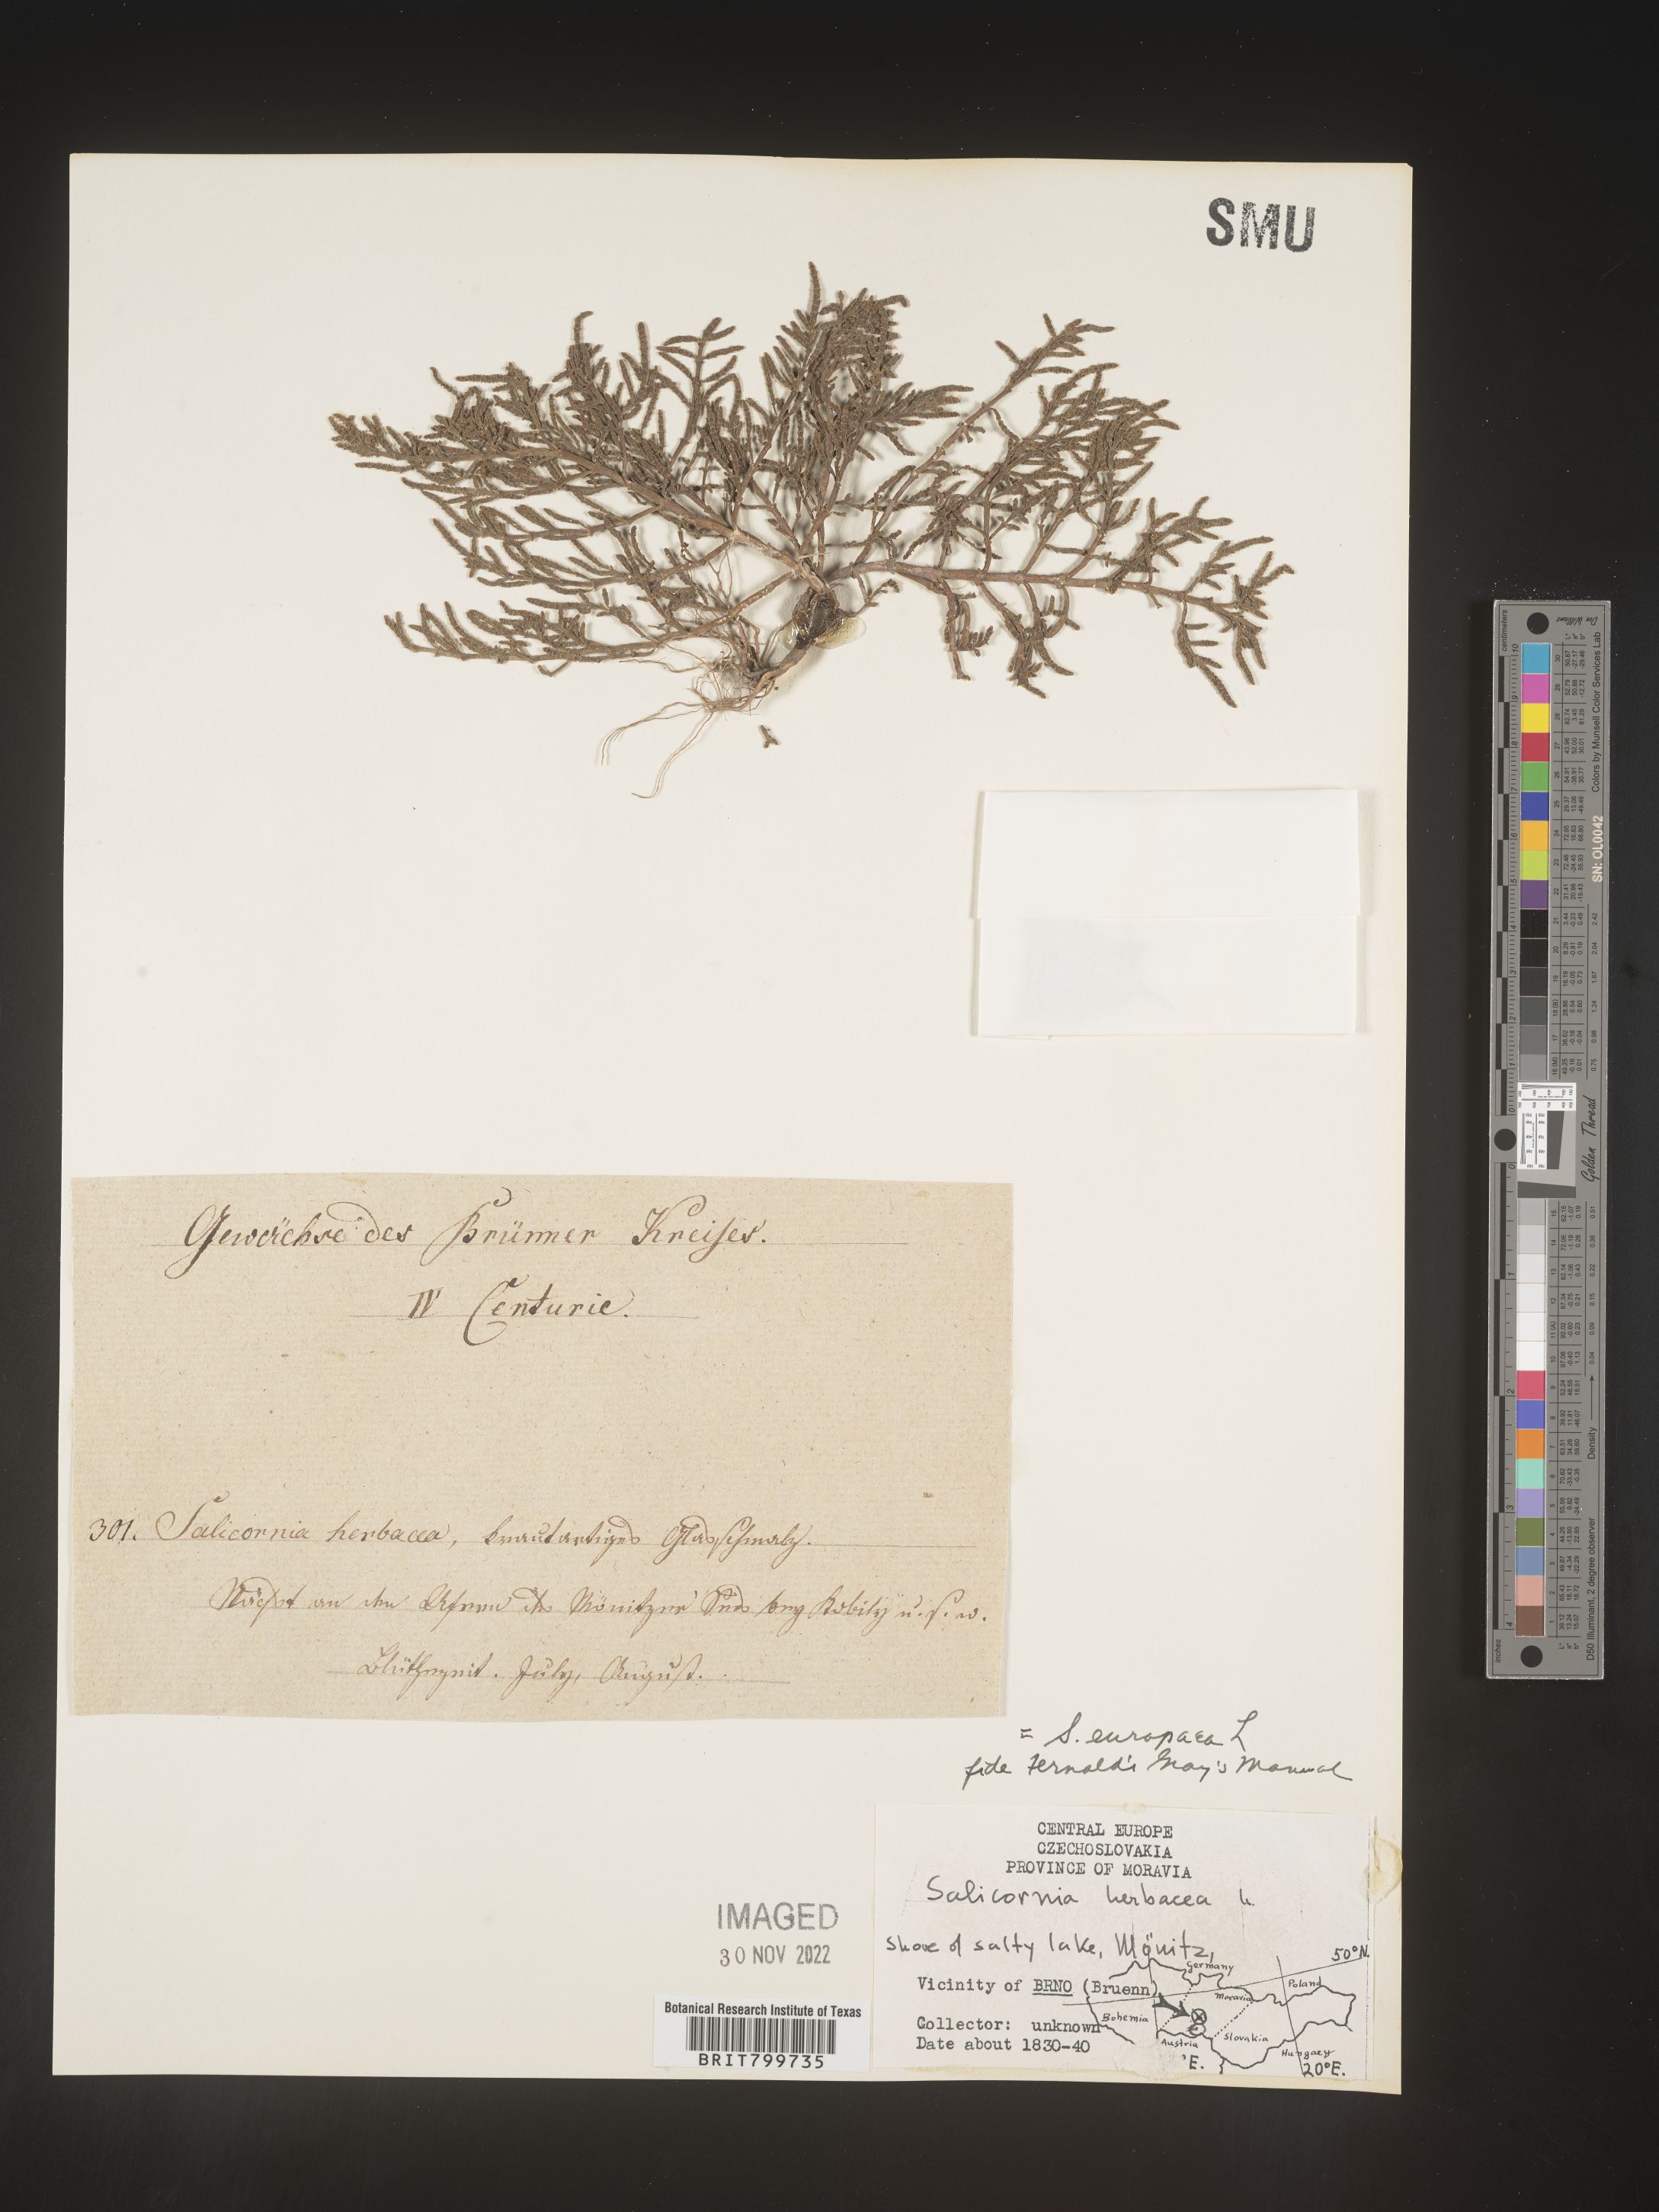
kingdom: Plantae
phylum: Tracheophyta
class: Magnoliopsida
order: Caryophyllales
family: Amaranthaceae
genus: Salicornia
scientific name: Salicornia
